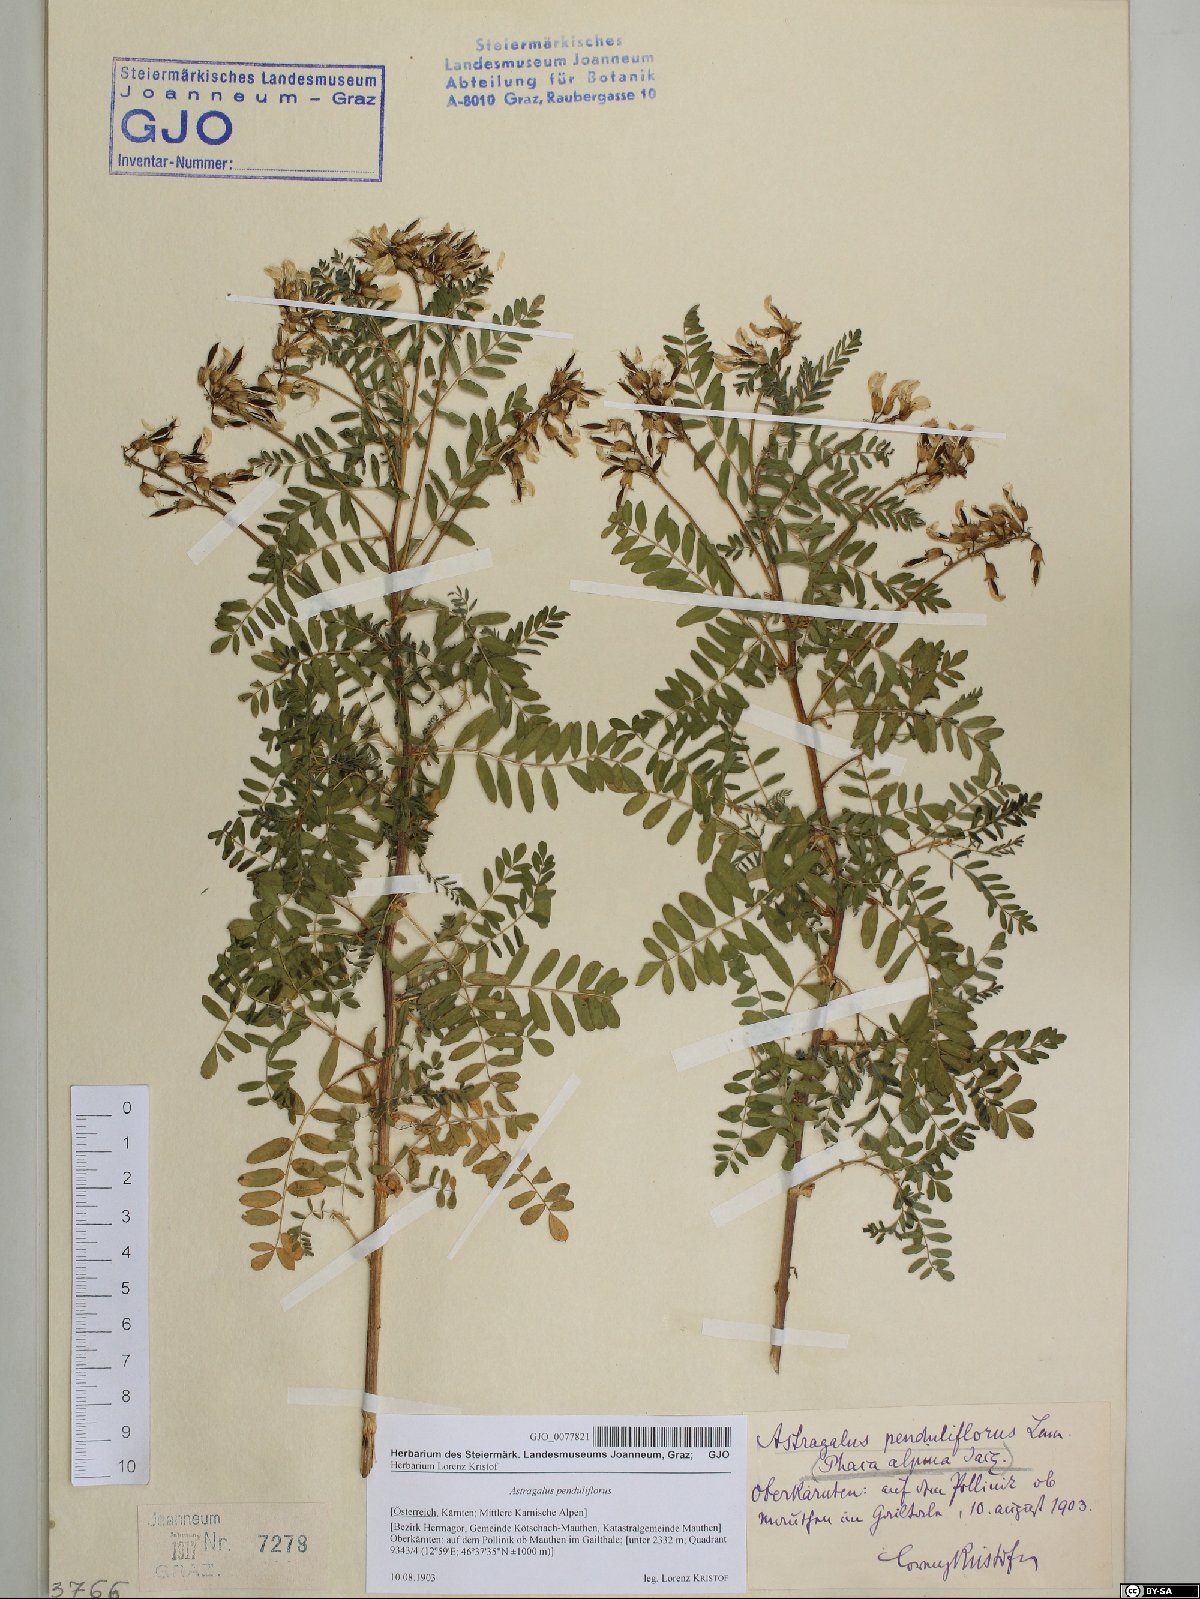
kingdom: Plantae
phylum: Tracheophyta
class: Magnoliopsida
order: Fabales
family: Fabaceae
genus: Astragalus
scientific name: Astragalus penduliflorus
